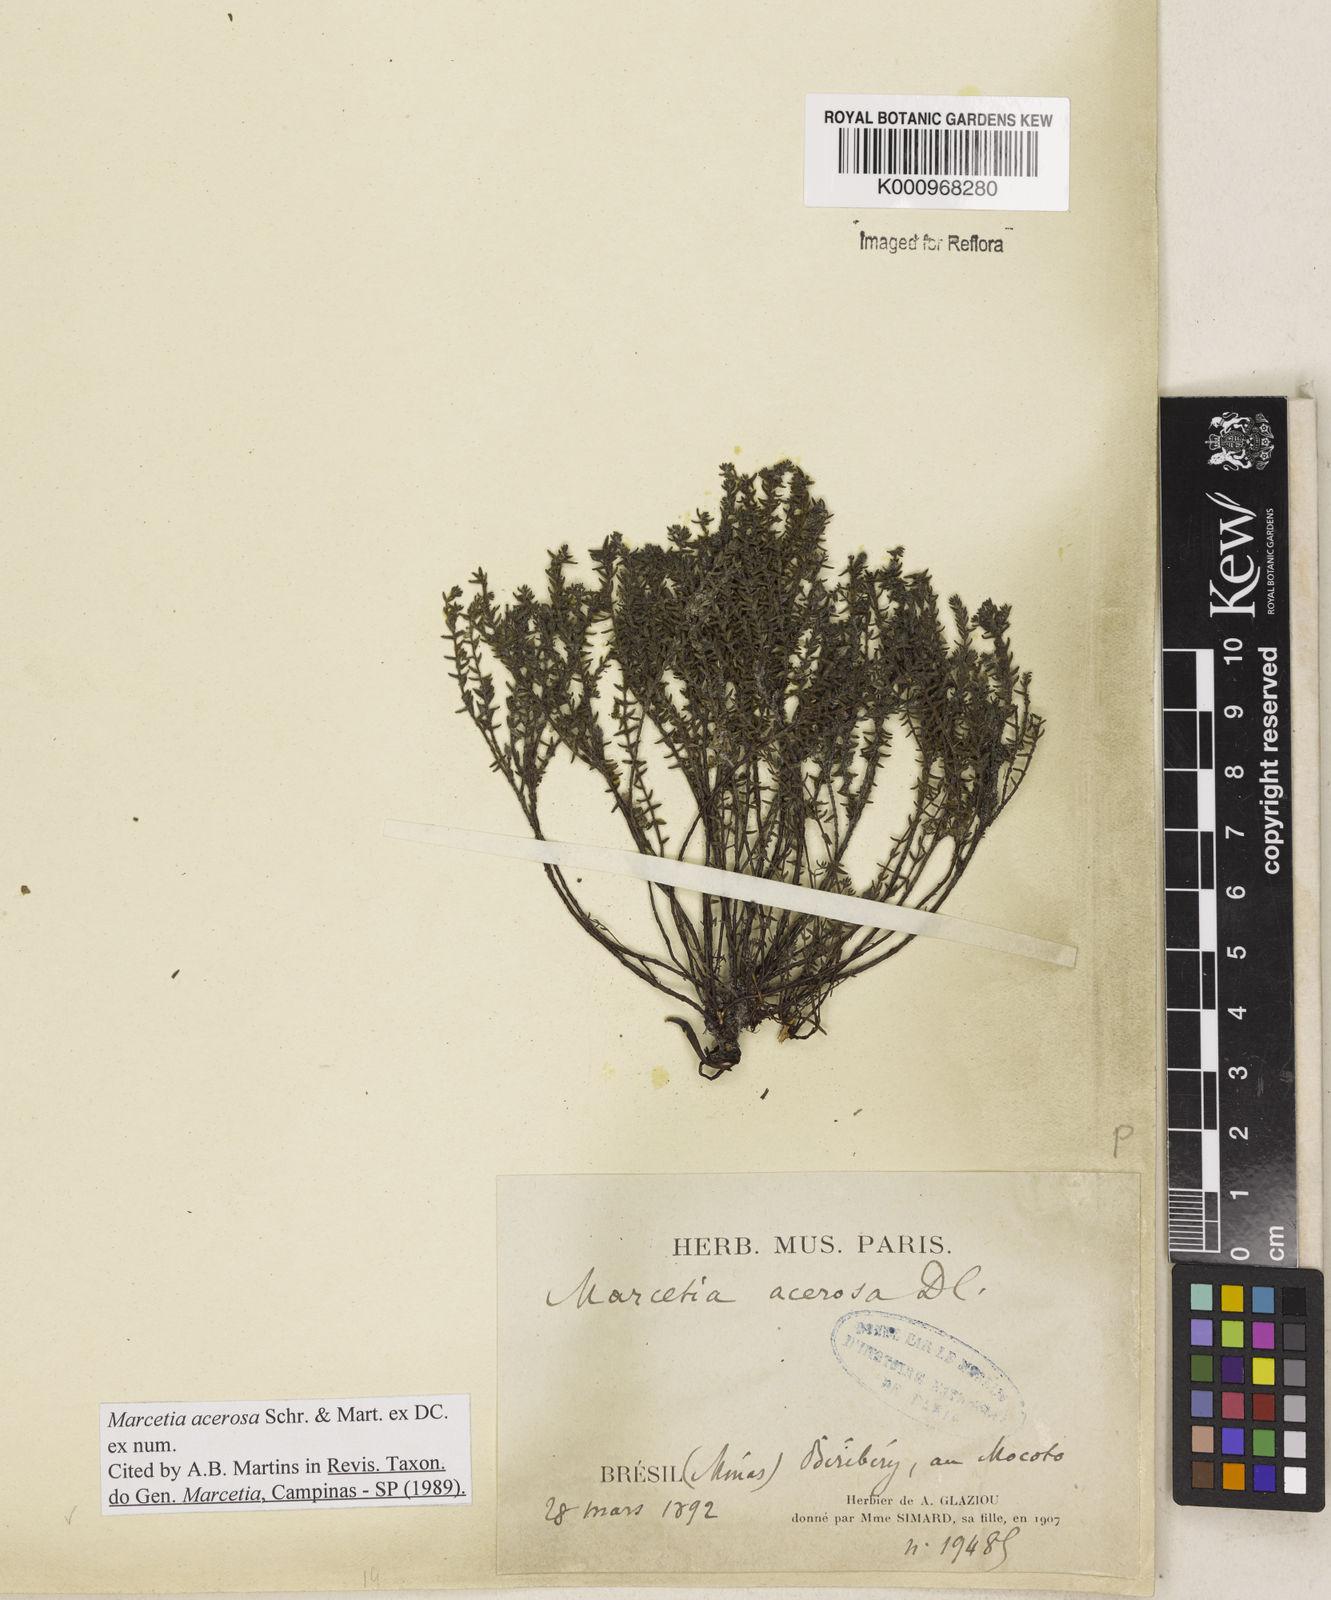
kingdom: Plantae
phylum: Tracheophyta
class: Magnoliopsida
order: Myrtales
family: Melastomataceae
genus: Marcetia
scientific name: Marcetia acerosa
